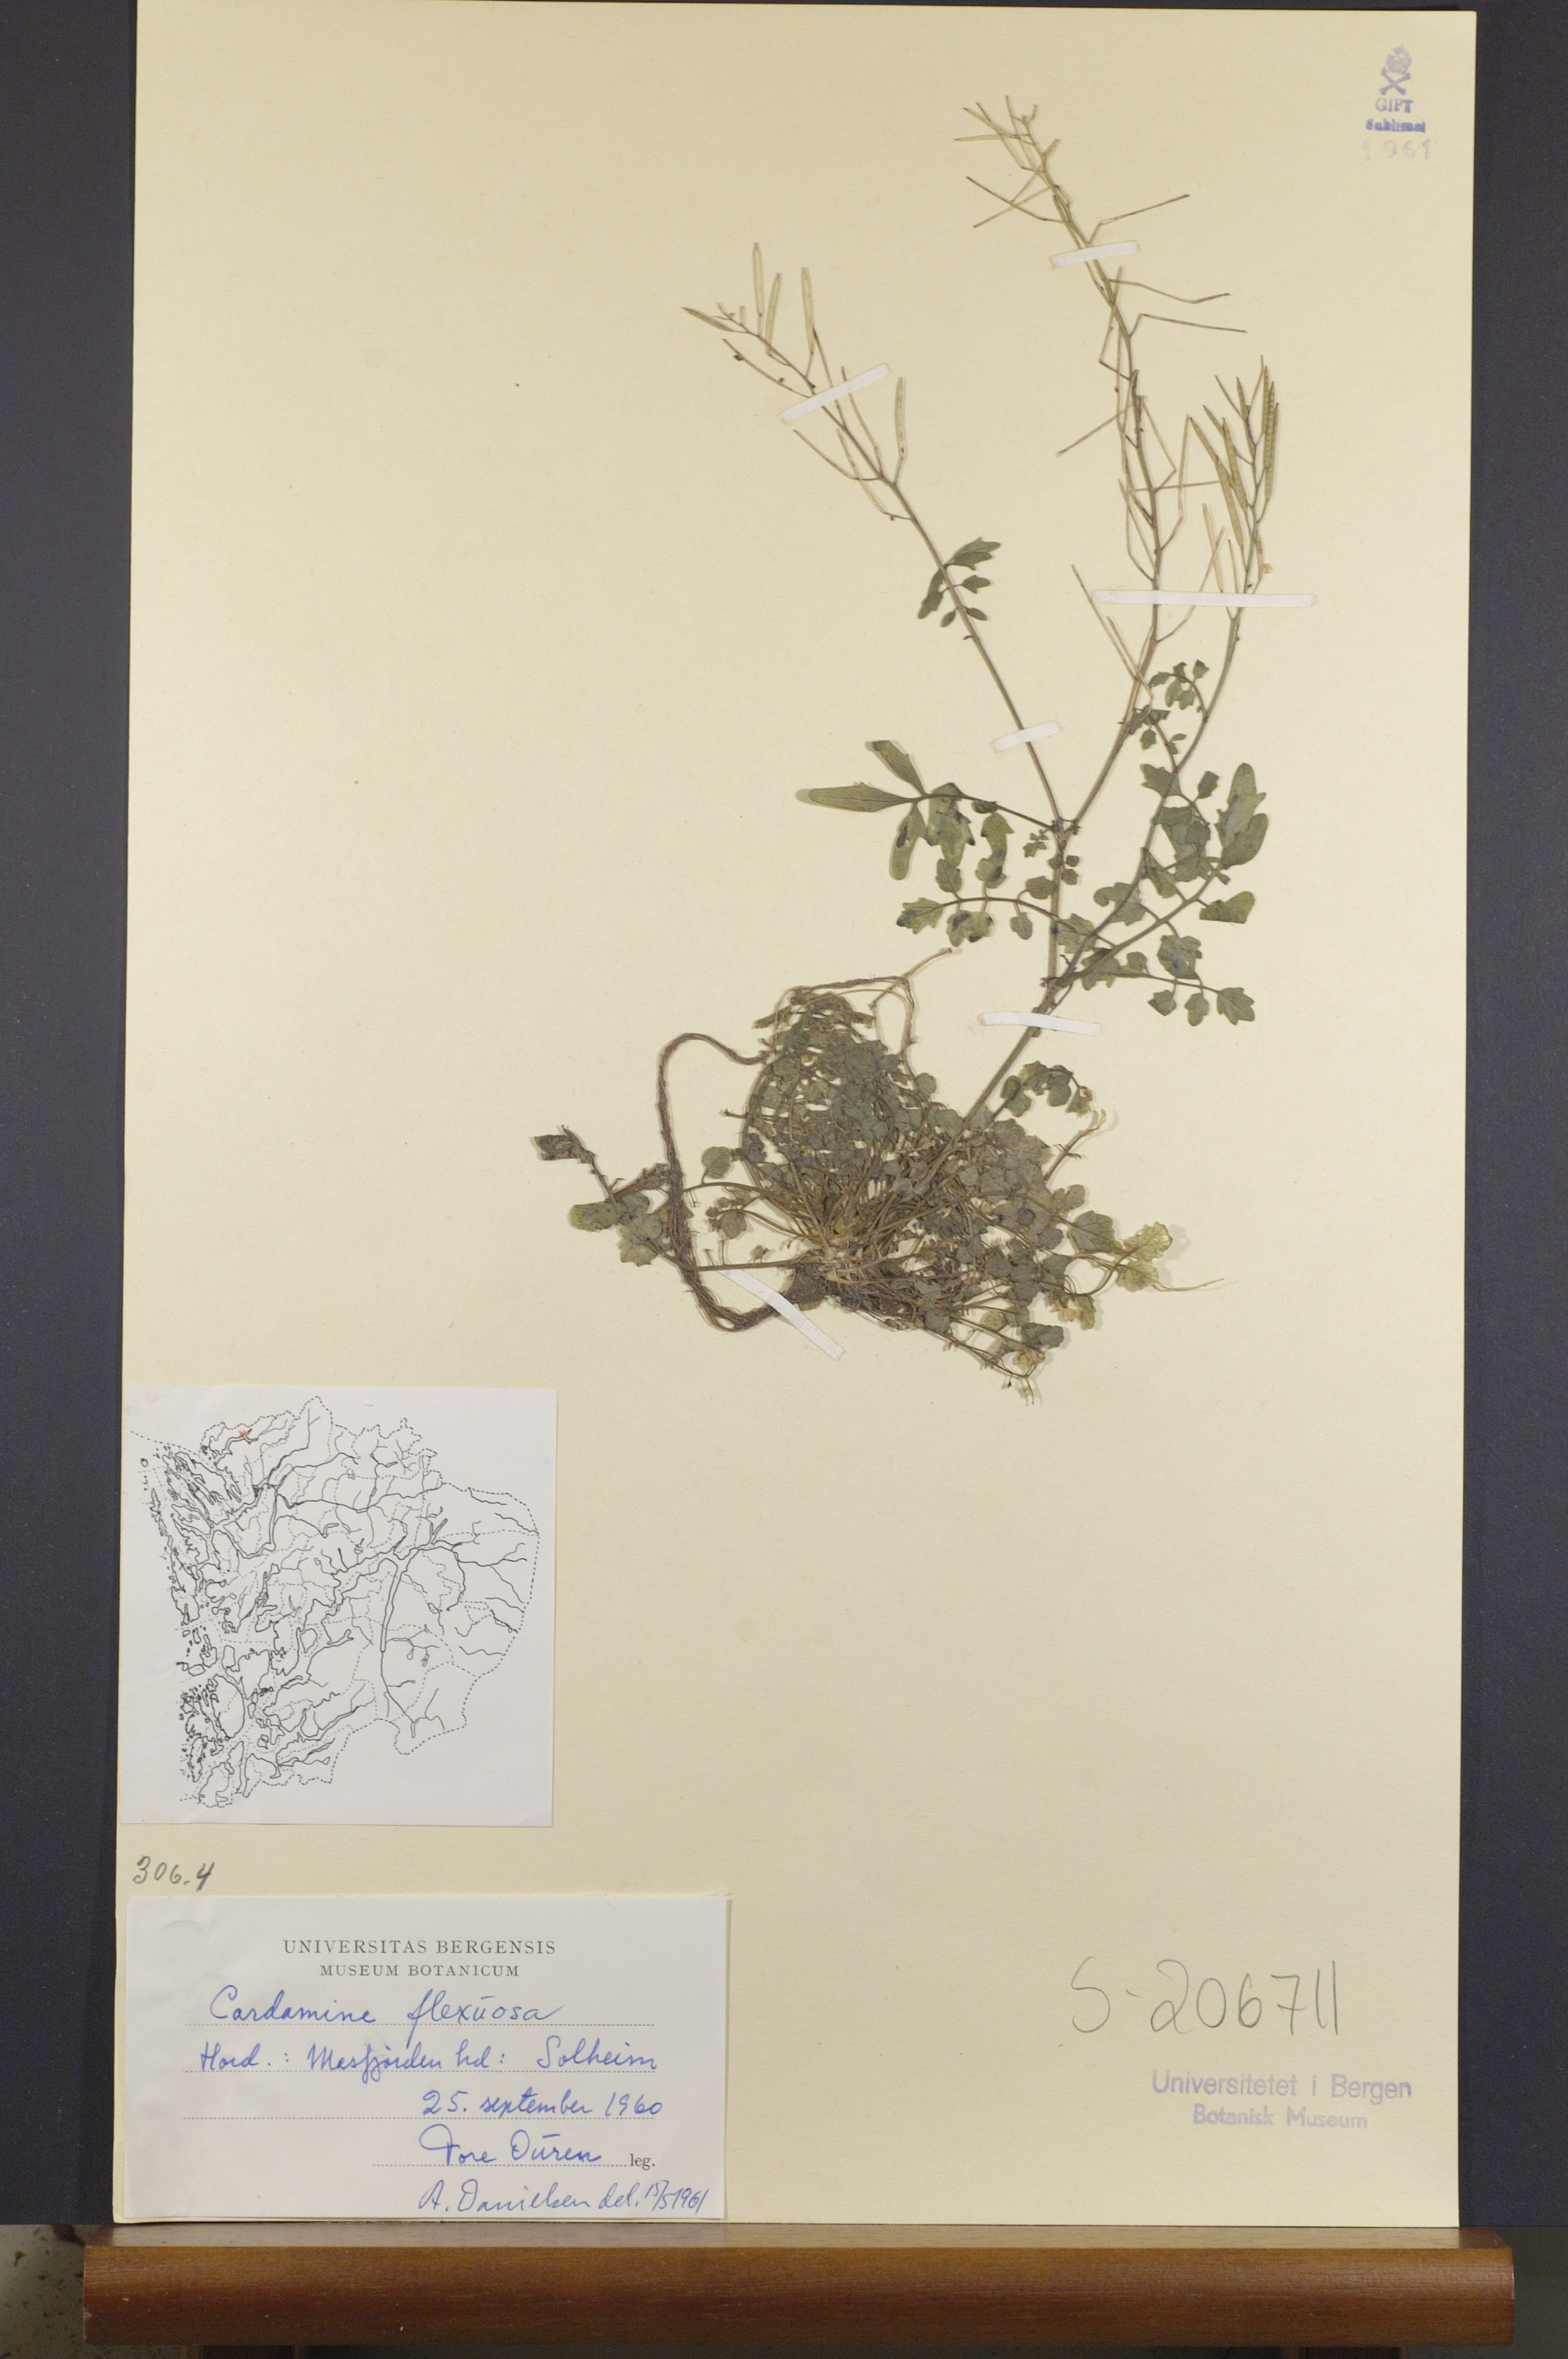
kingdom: Plantae
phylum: Tracheophyta
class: Magnoliopsida
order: Brassicales
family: Brassicaceae
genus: Cardamine
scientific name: Cardamine flexuosa
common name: Woodland bittercress
